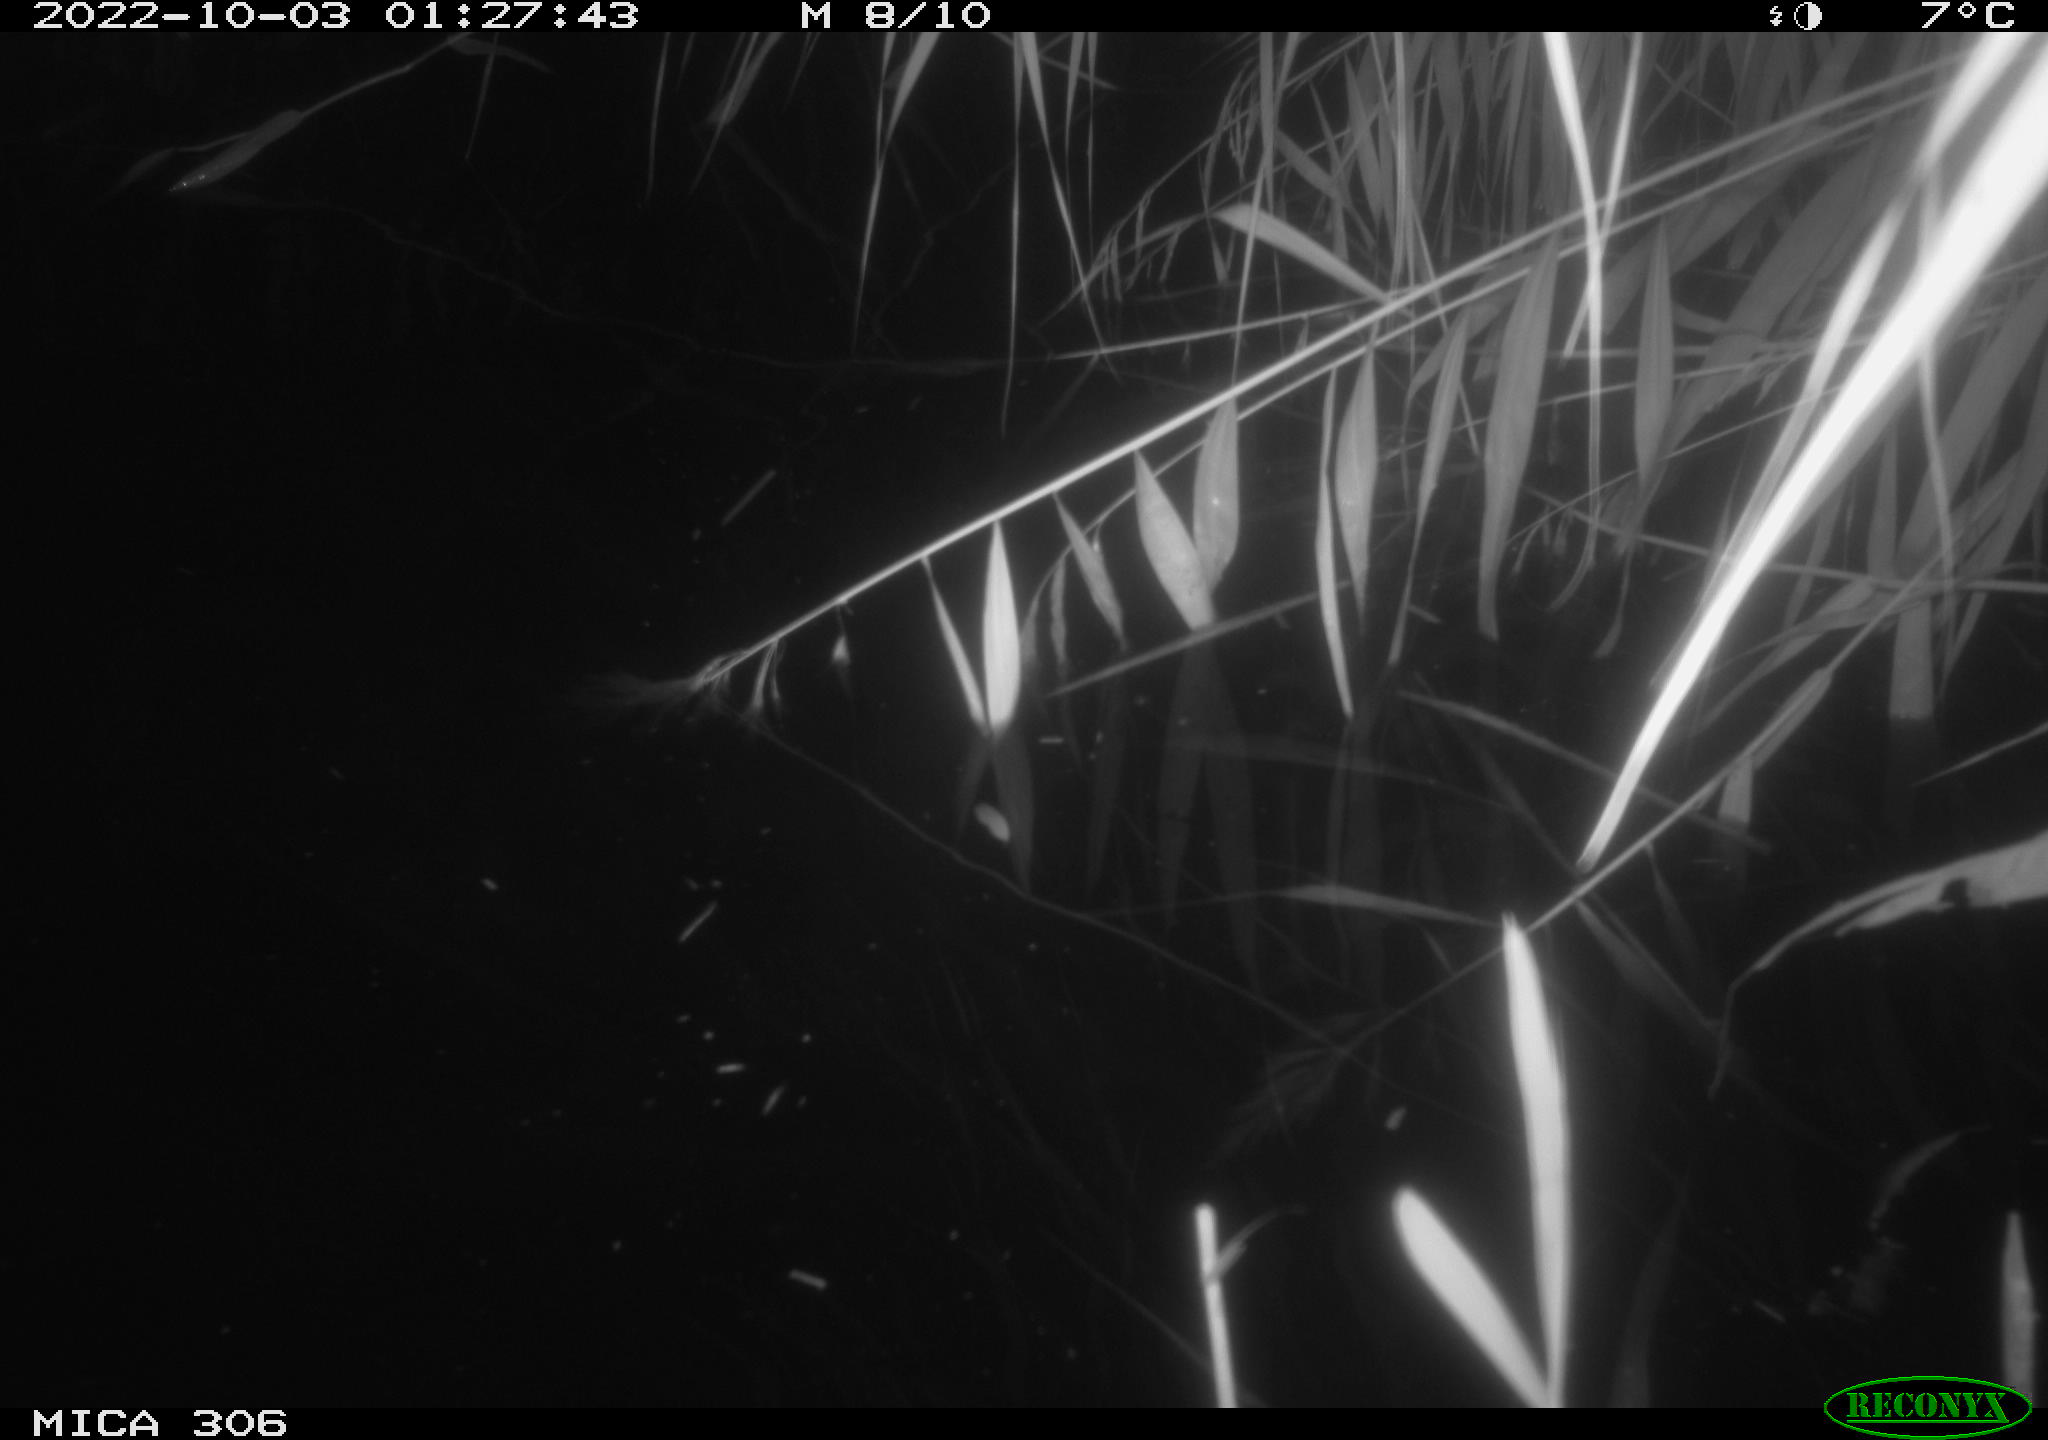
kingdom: Animalia
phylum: Chordata
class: Mammalia
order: Rodentia
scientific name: Rodentia
